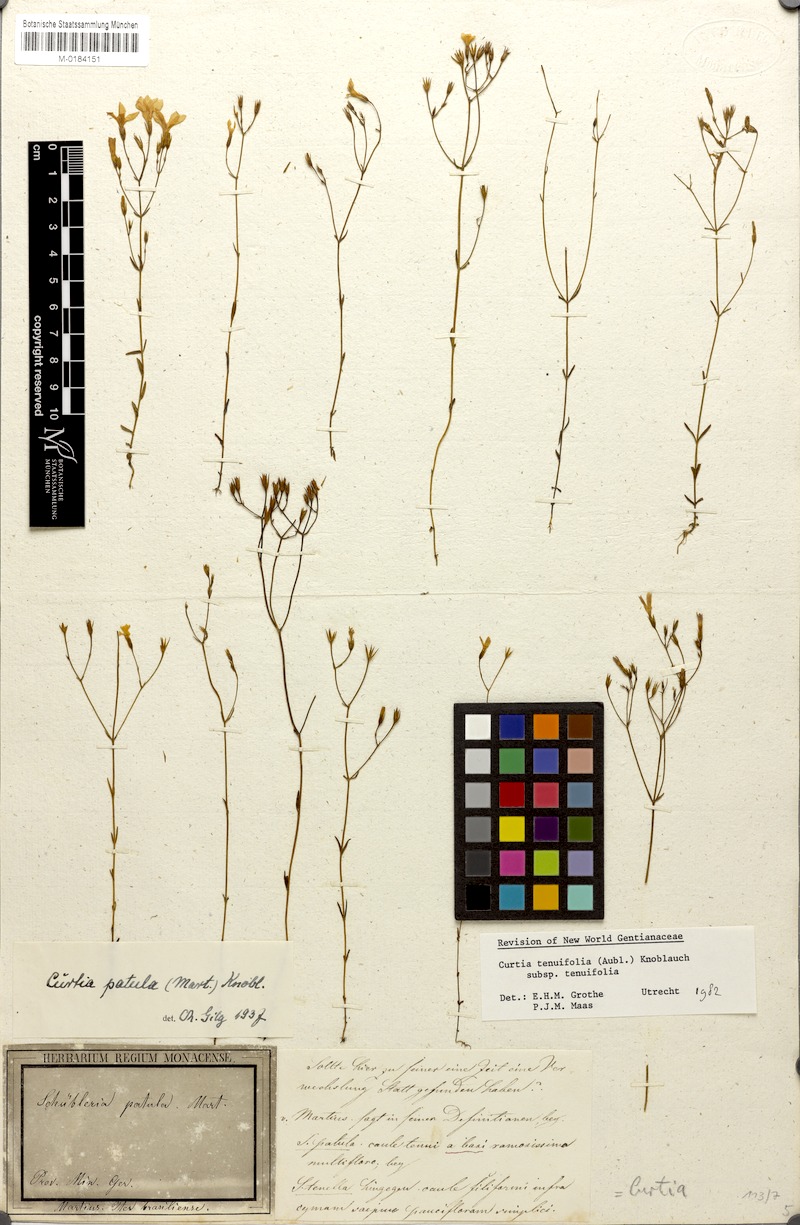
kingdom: Plantae
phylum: Tracheophyta
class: Magnoliopsida
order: Gentianales
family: Gentianaceae
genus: Curtia
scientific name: Curtia tenuifolia
